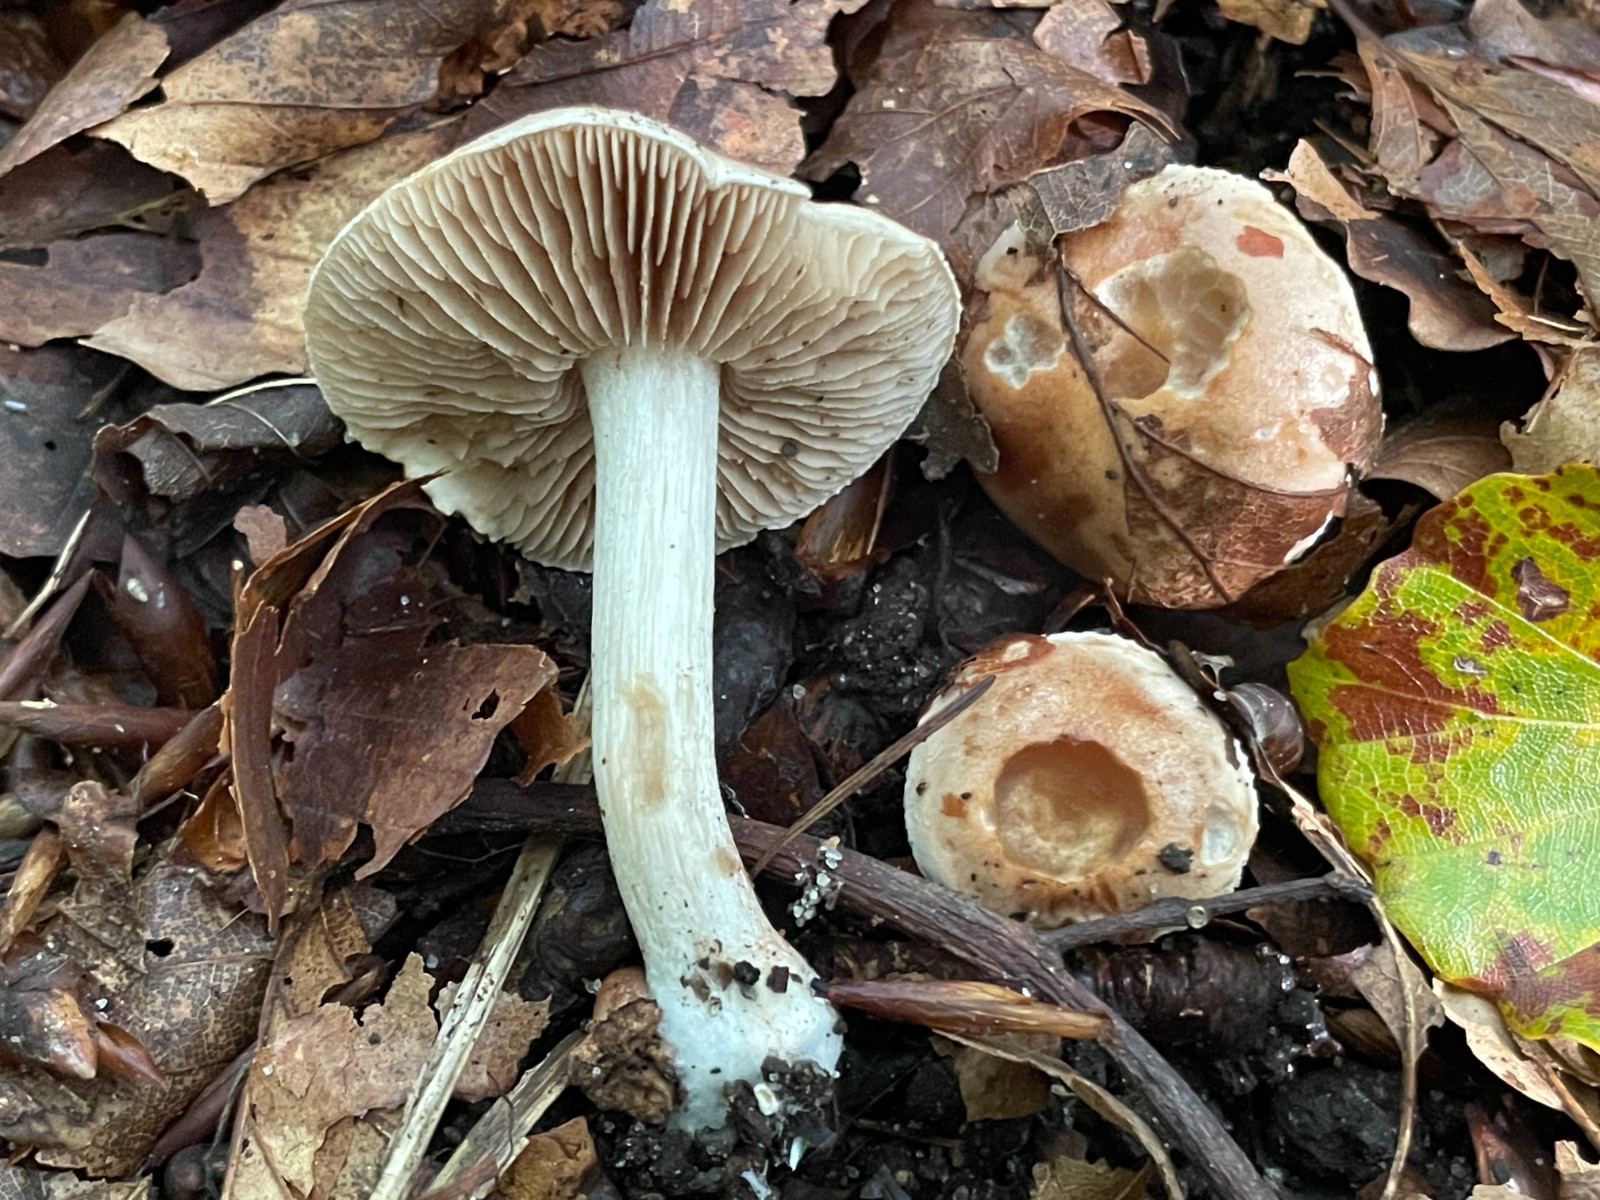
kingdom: Fungi
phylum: Basidiomycota
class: Agaricomycetes
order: Agaricales
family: Hymenogastraceae
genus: Hebeloma
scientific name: Hebeloma
